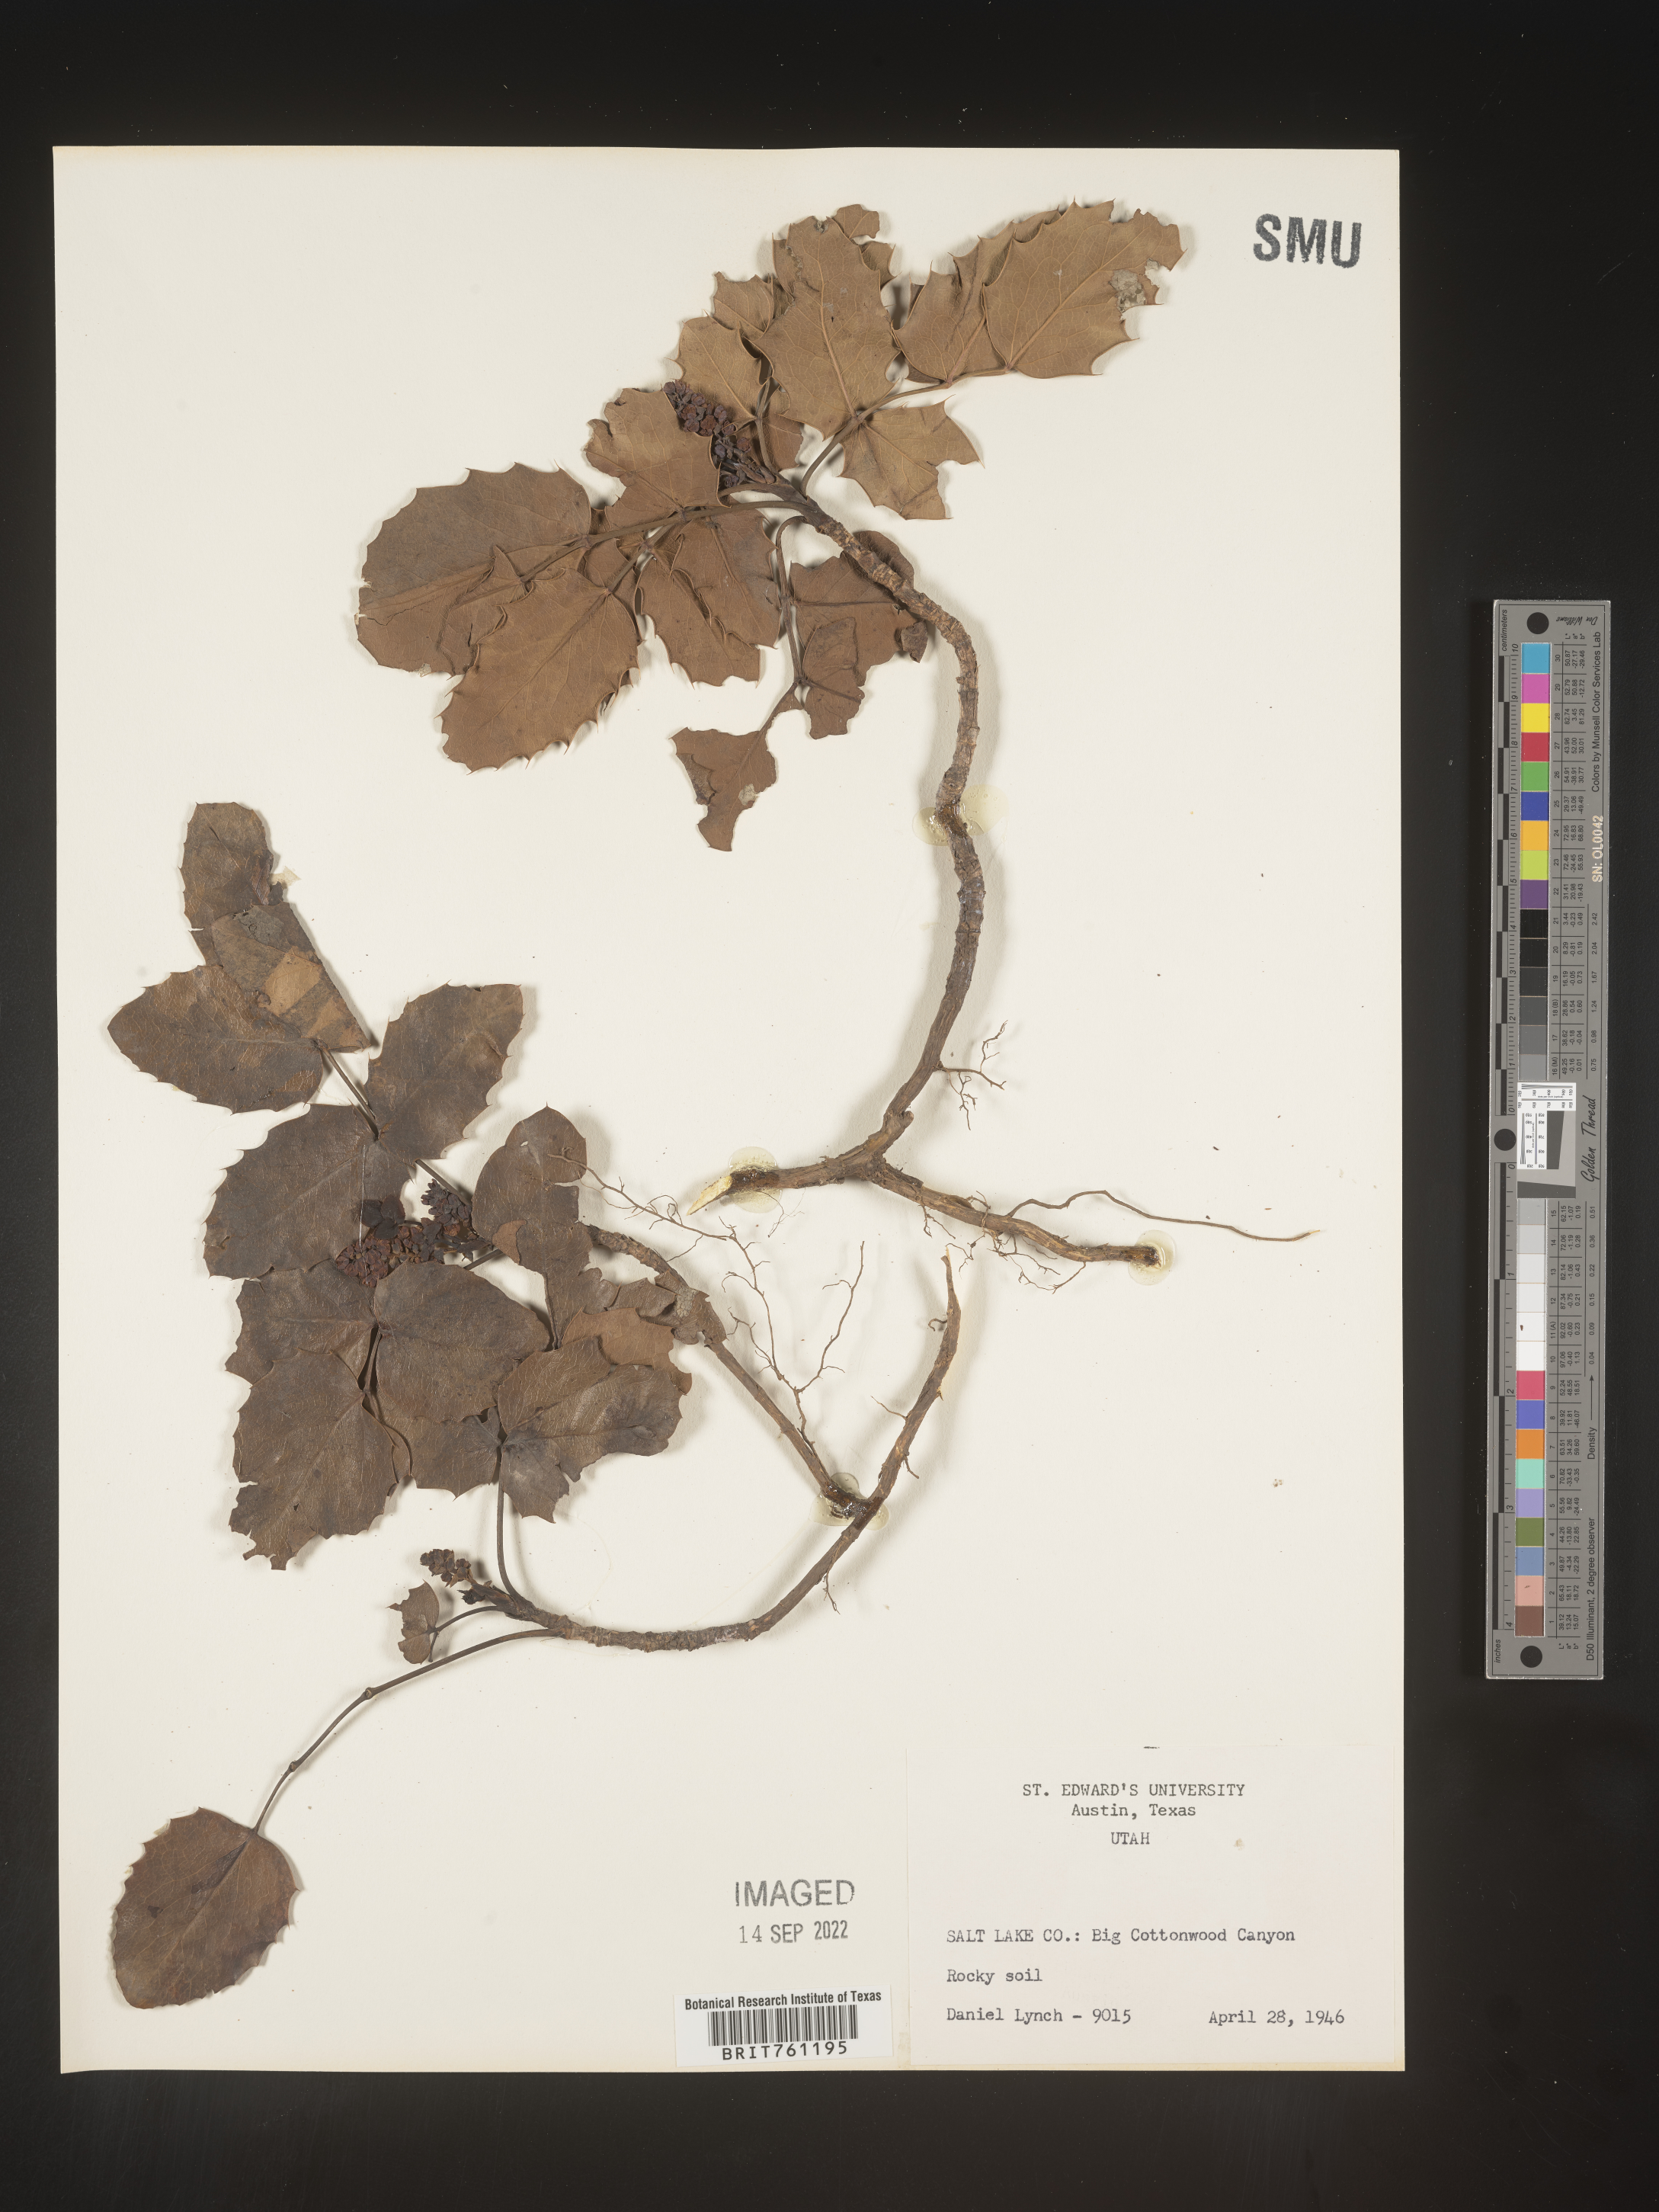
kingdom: Plantae
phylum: Tracheophyta
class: Magnoliopsida
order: Ranunculales
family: Berberidaceae
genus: Mahonia
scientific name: Mahonia
